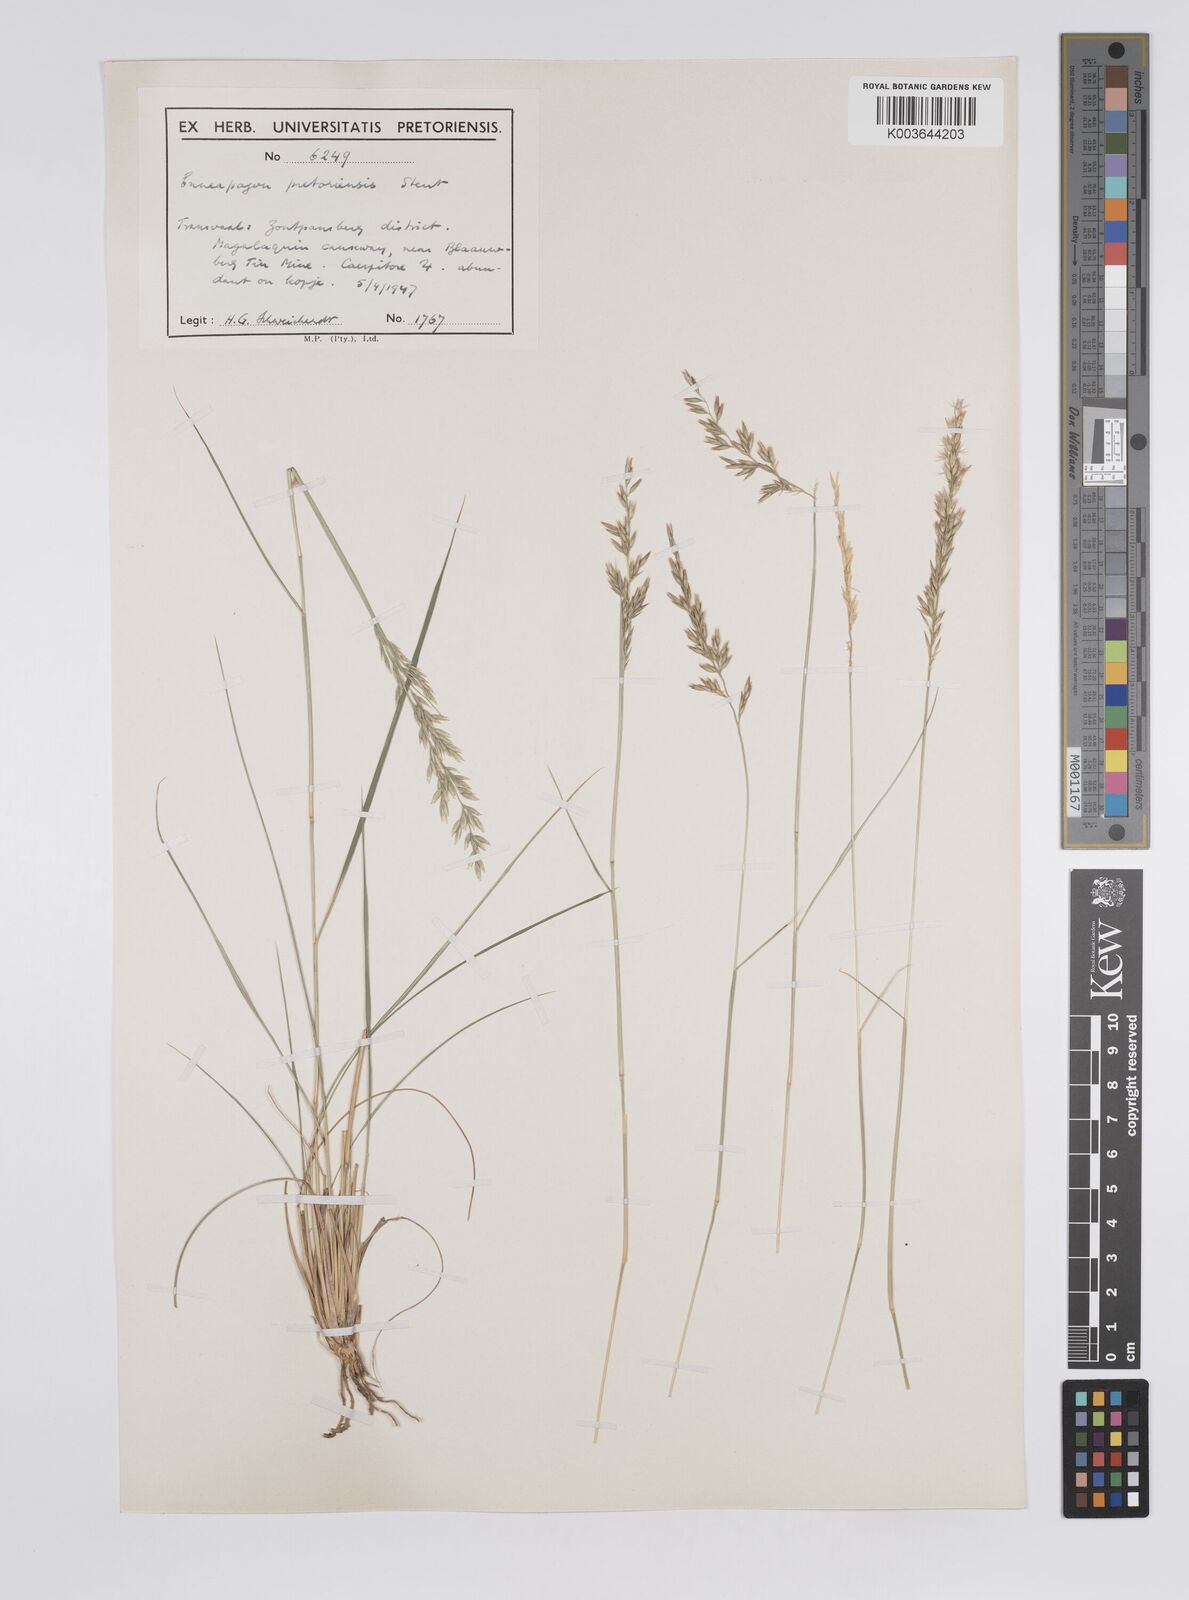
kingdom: Plantae
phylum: Tracheophyta
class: Liliopsida
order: Poales
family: Poaceae
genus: Enneapogon
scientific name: Enneapogon pretoriensis
